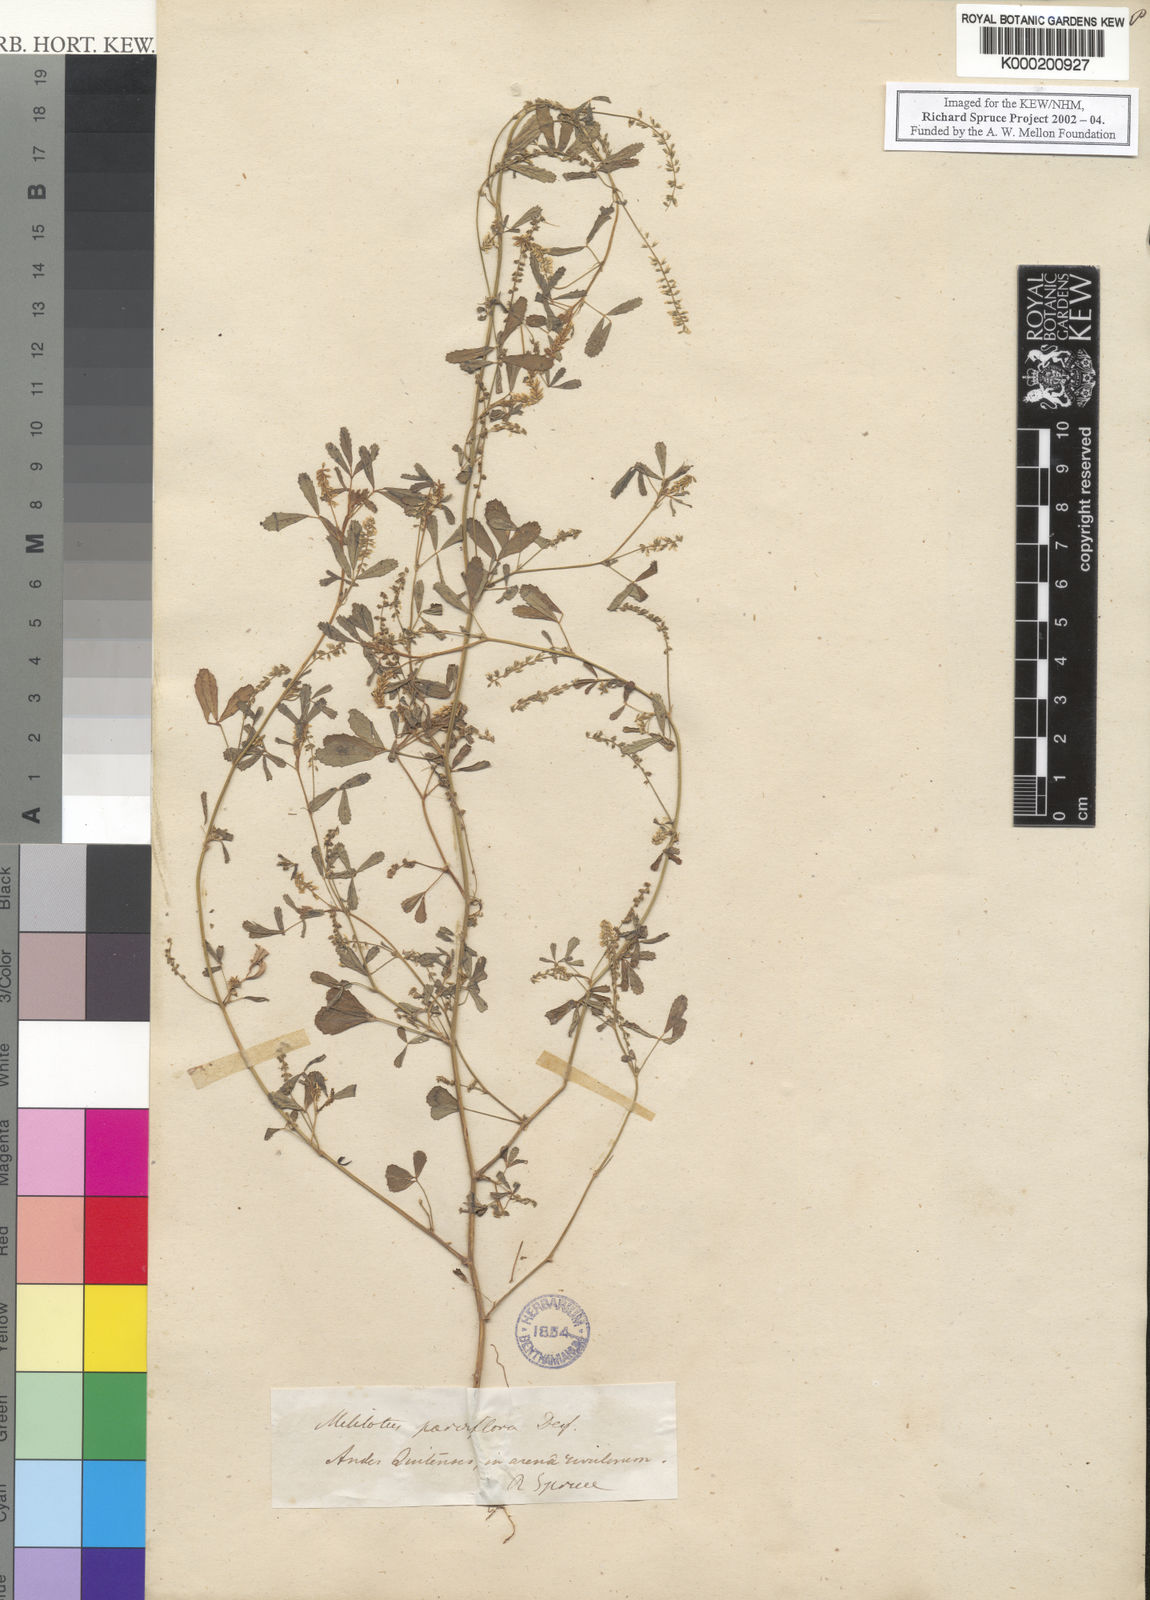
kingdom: Plantae
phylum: Tracheophyta
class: Magnoliopsida
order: Fabales
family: Fabaceae
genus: Melilotus
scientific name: Melilotus indicus
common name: Small melilot
